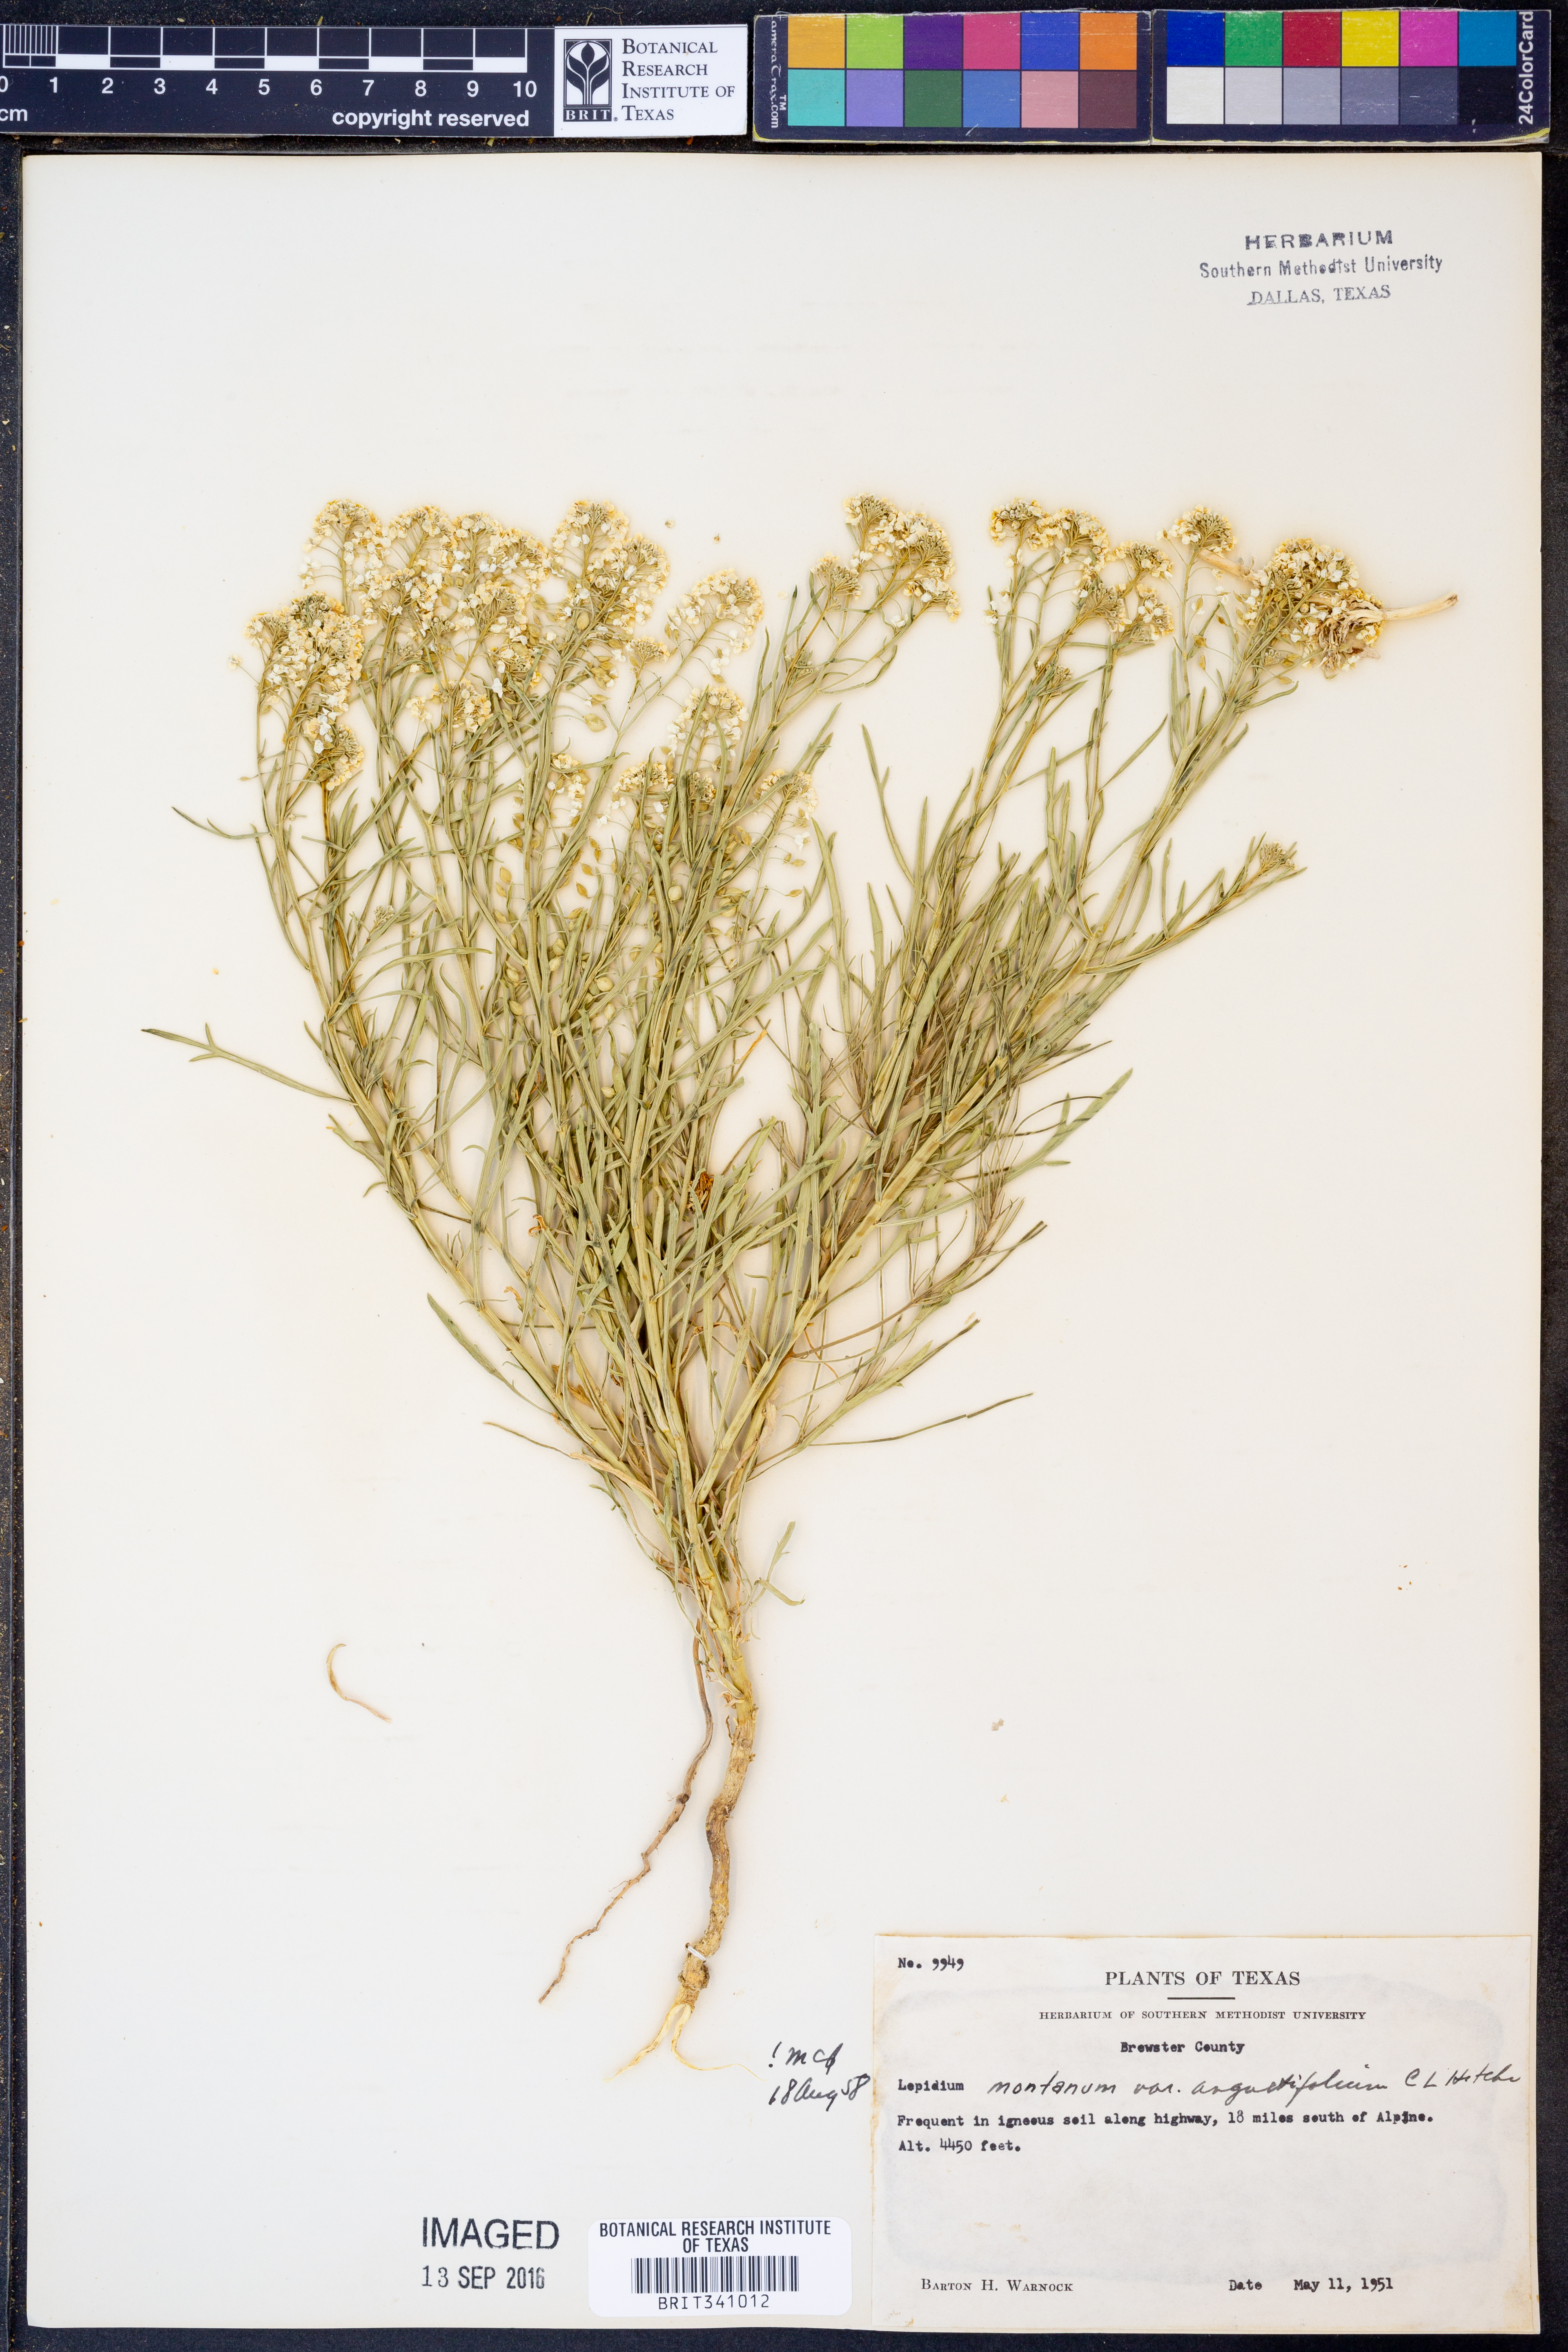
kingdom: Plantae
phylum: Tracheophyta
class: Magnoliopsida
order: Brassicales
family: Brassicaceae
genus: Lepidium
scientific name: Lepidium alyssoides
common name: Mesa pepperweed
